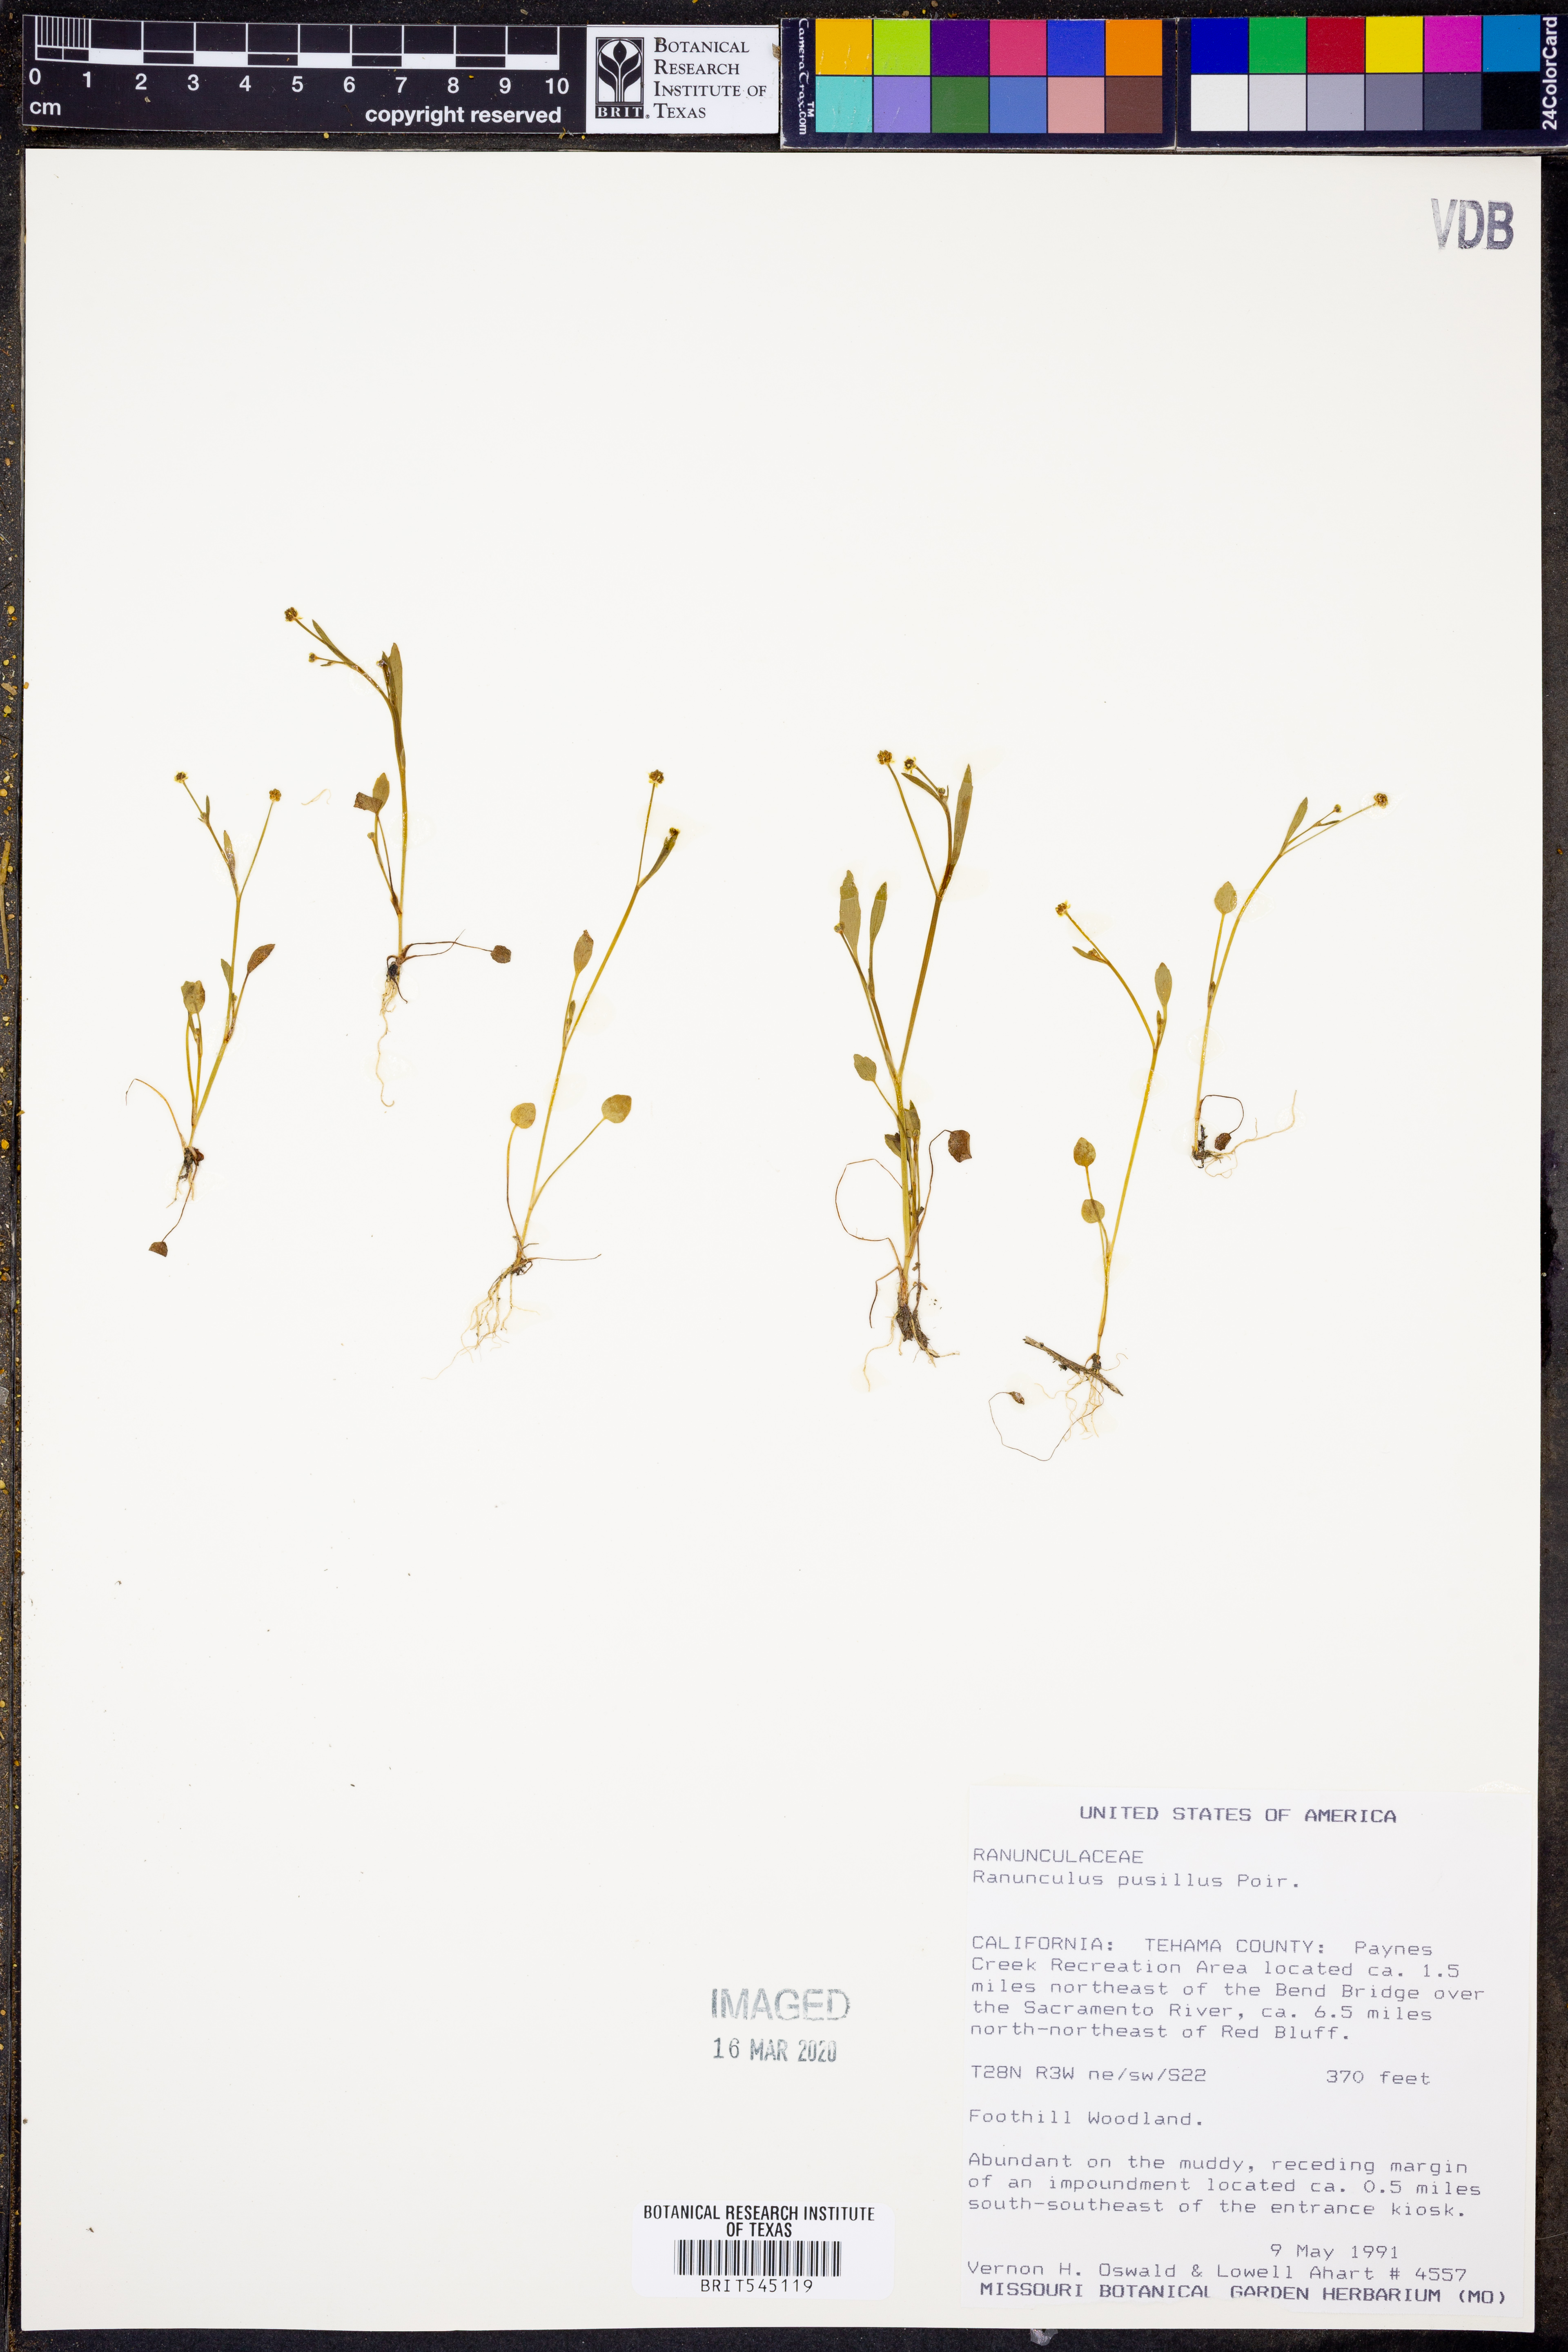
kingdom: Plantae
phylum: Tracheophyta
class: Magnoliopsida
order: Ranunculales
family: Ranunculaceae
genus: Ranunculus
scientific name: Ranunculus pusillus
